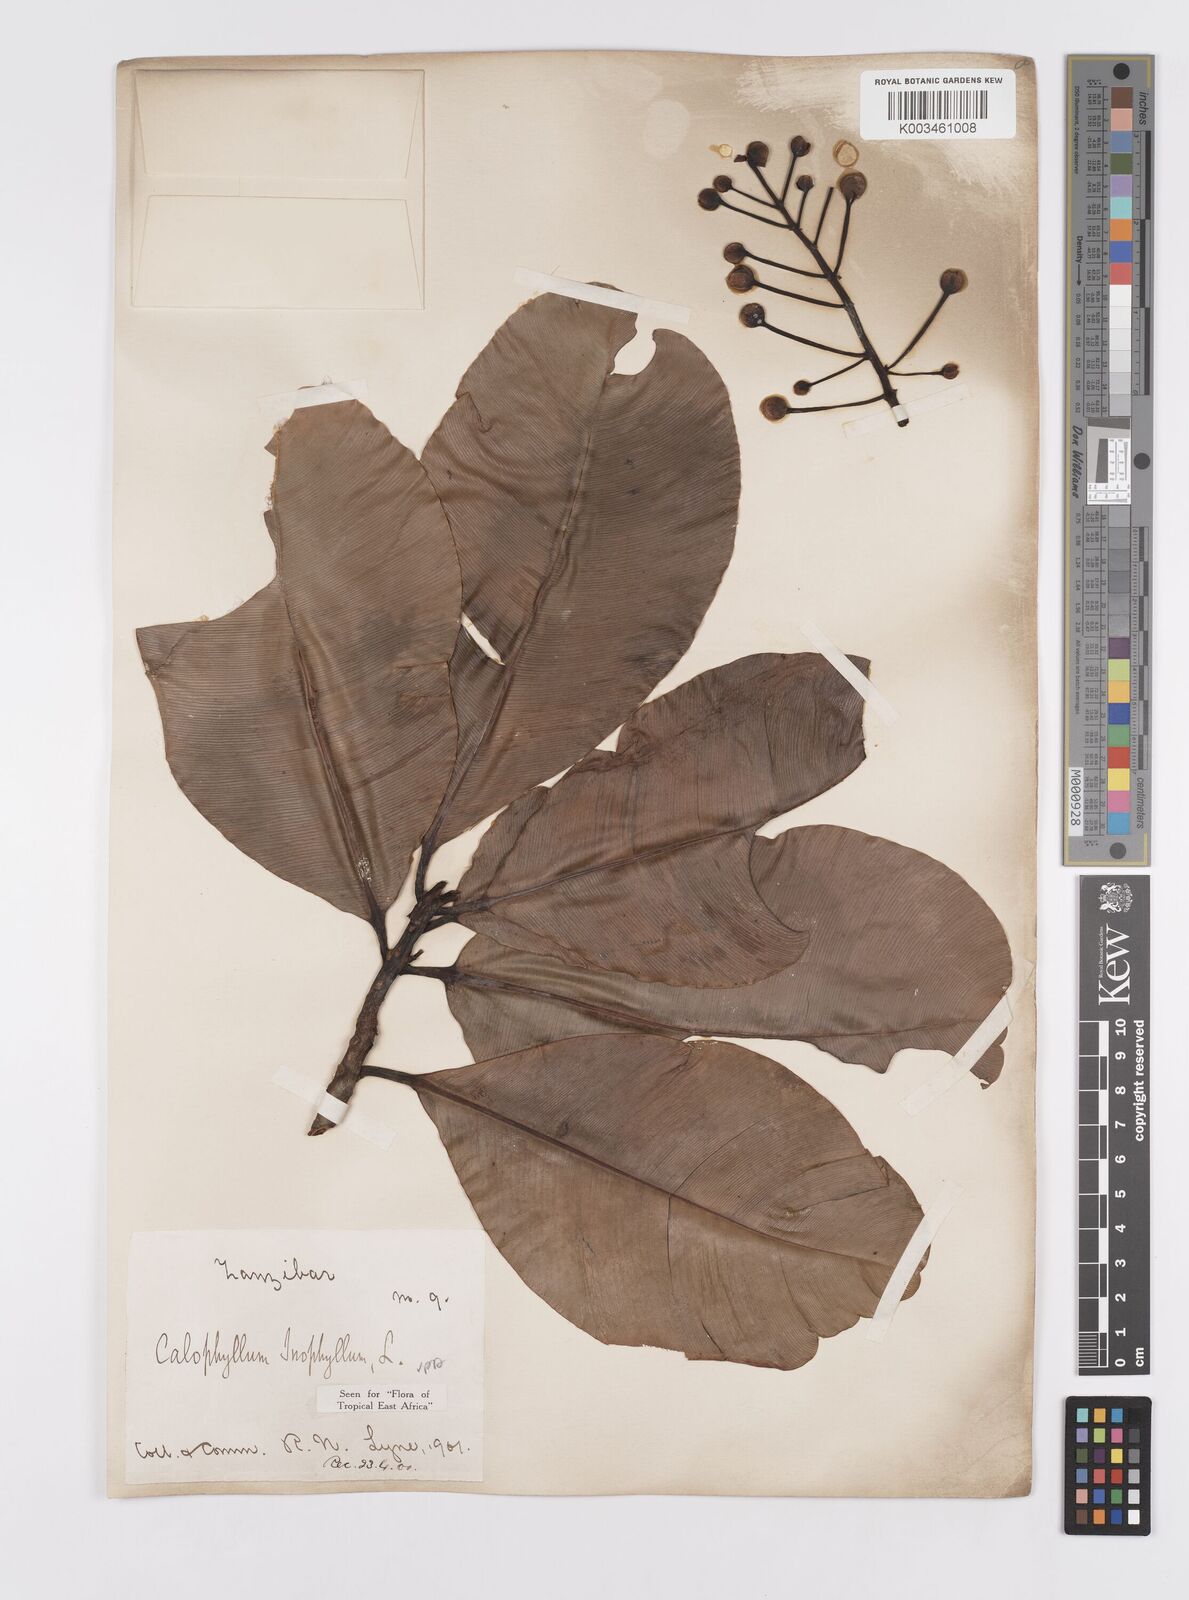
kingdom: Plantae
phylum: Tracheophyta
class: Magnoliopsida
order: Malpighiales
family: Calophyllaceae
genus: Calophyllum
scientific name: Calophyllum inophyllum
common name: Alexandrian laurel
